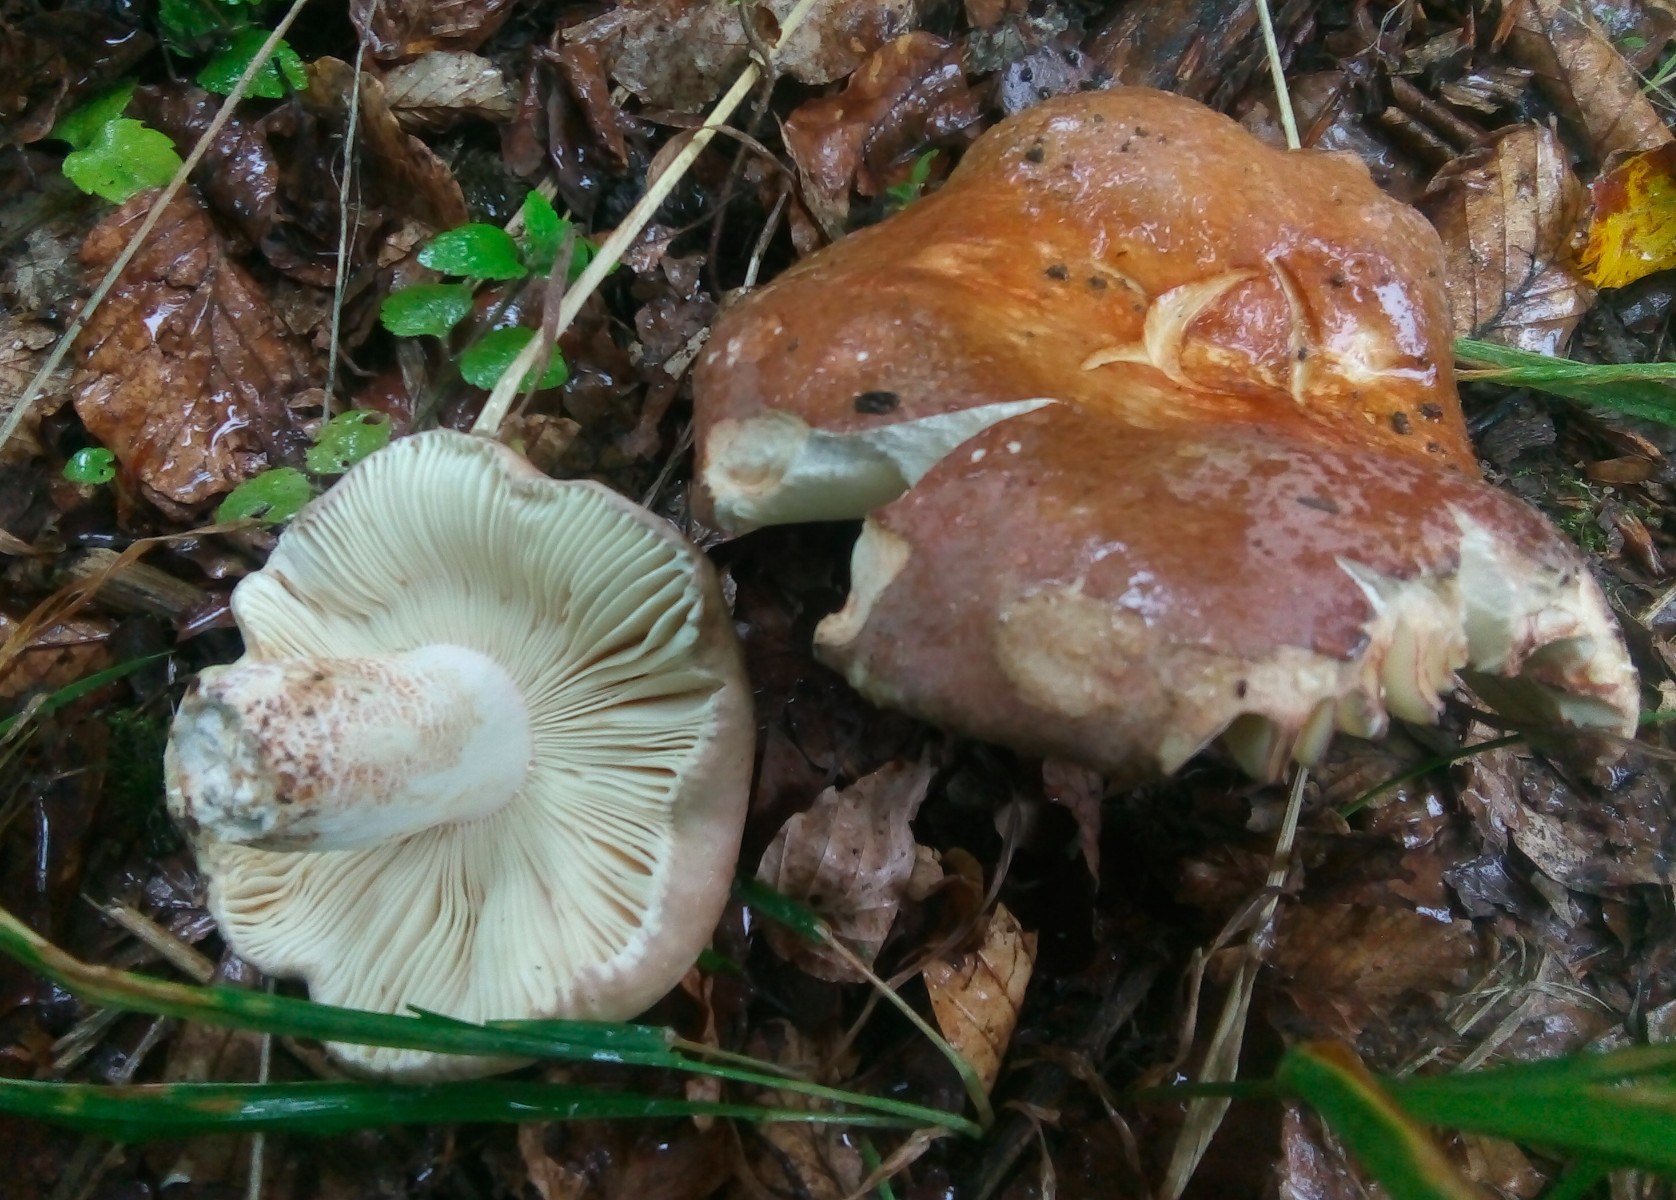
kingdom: Fungi
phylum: Basidiomycota
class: Agaricomycetes
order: Russulales
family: Russulaceae
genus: Russula
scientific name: Russula olivacea
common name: stor skørhat
